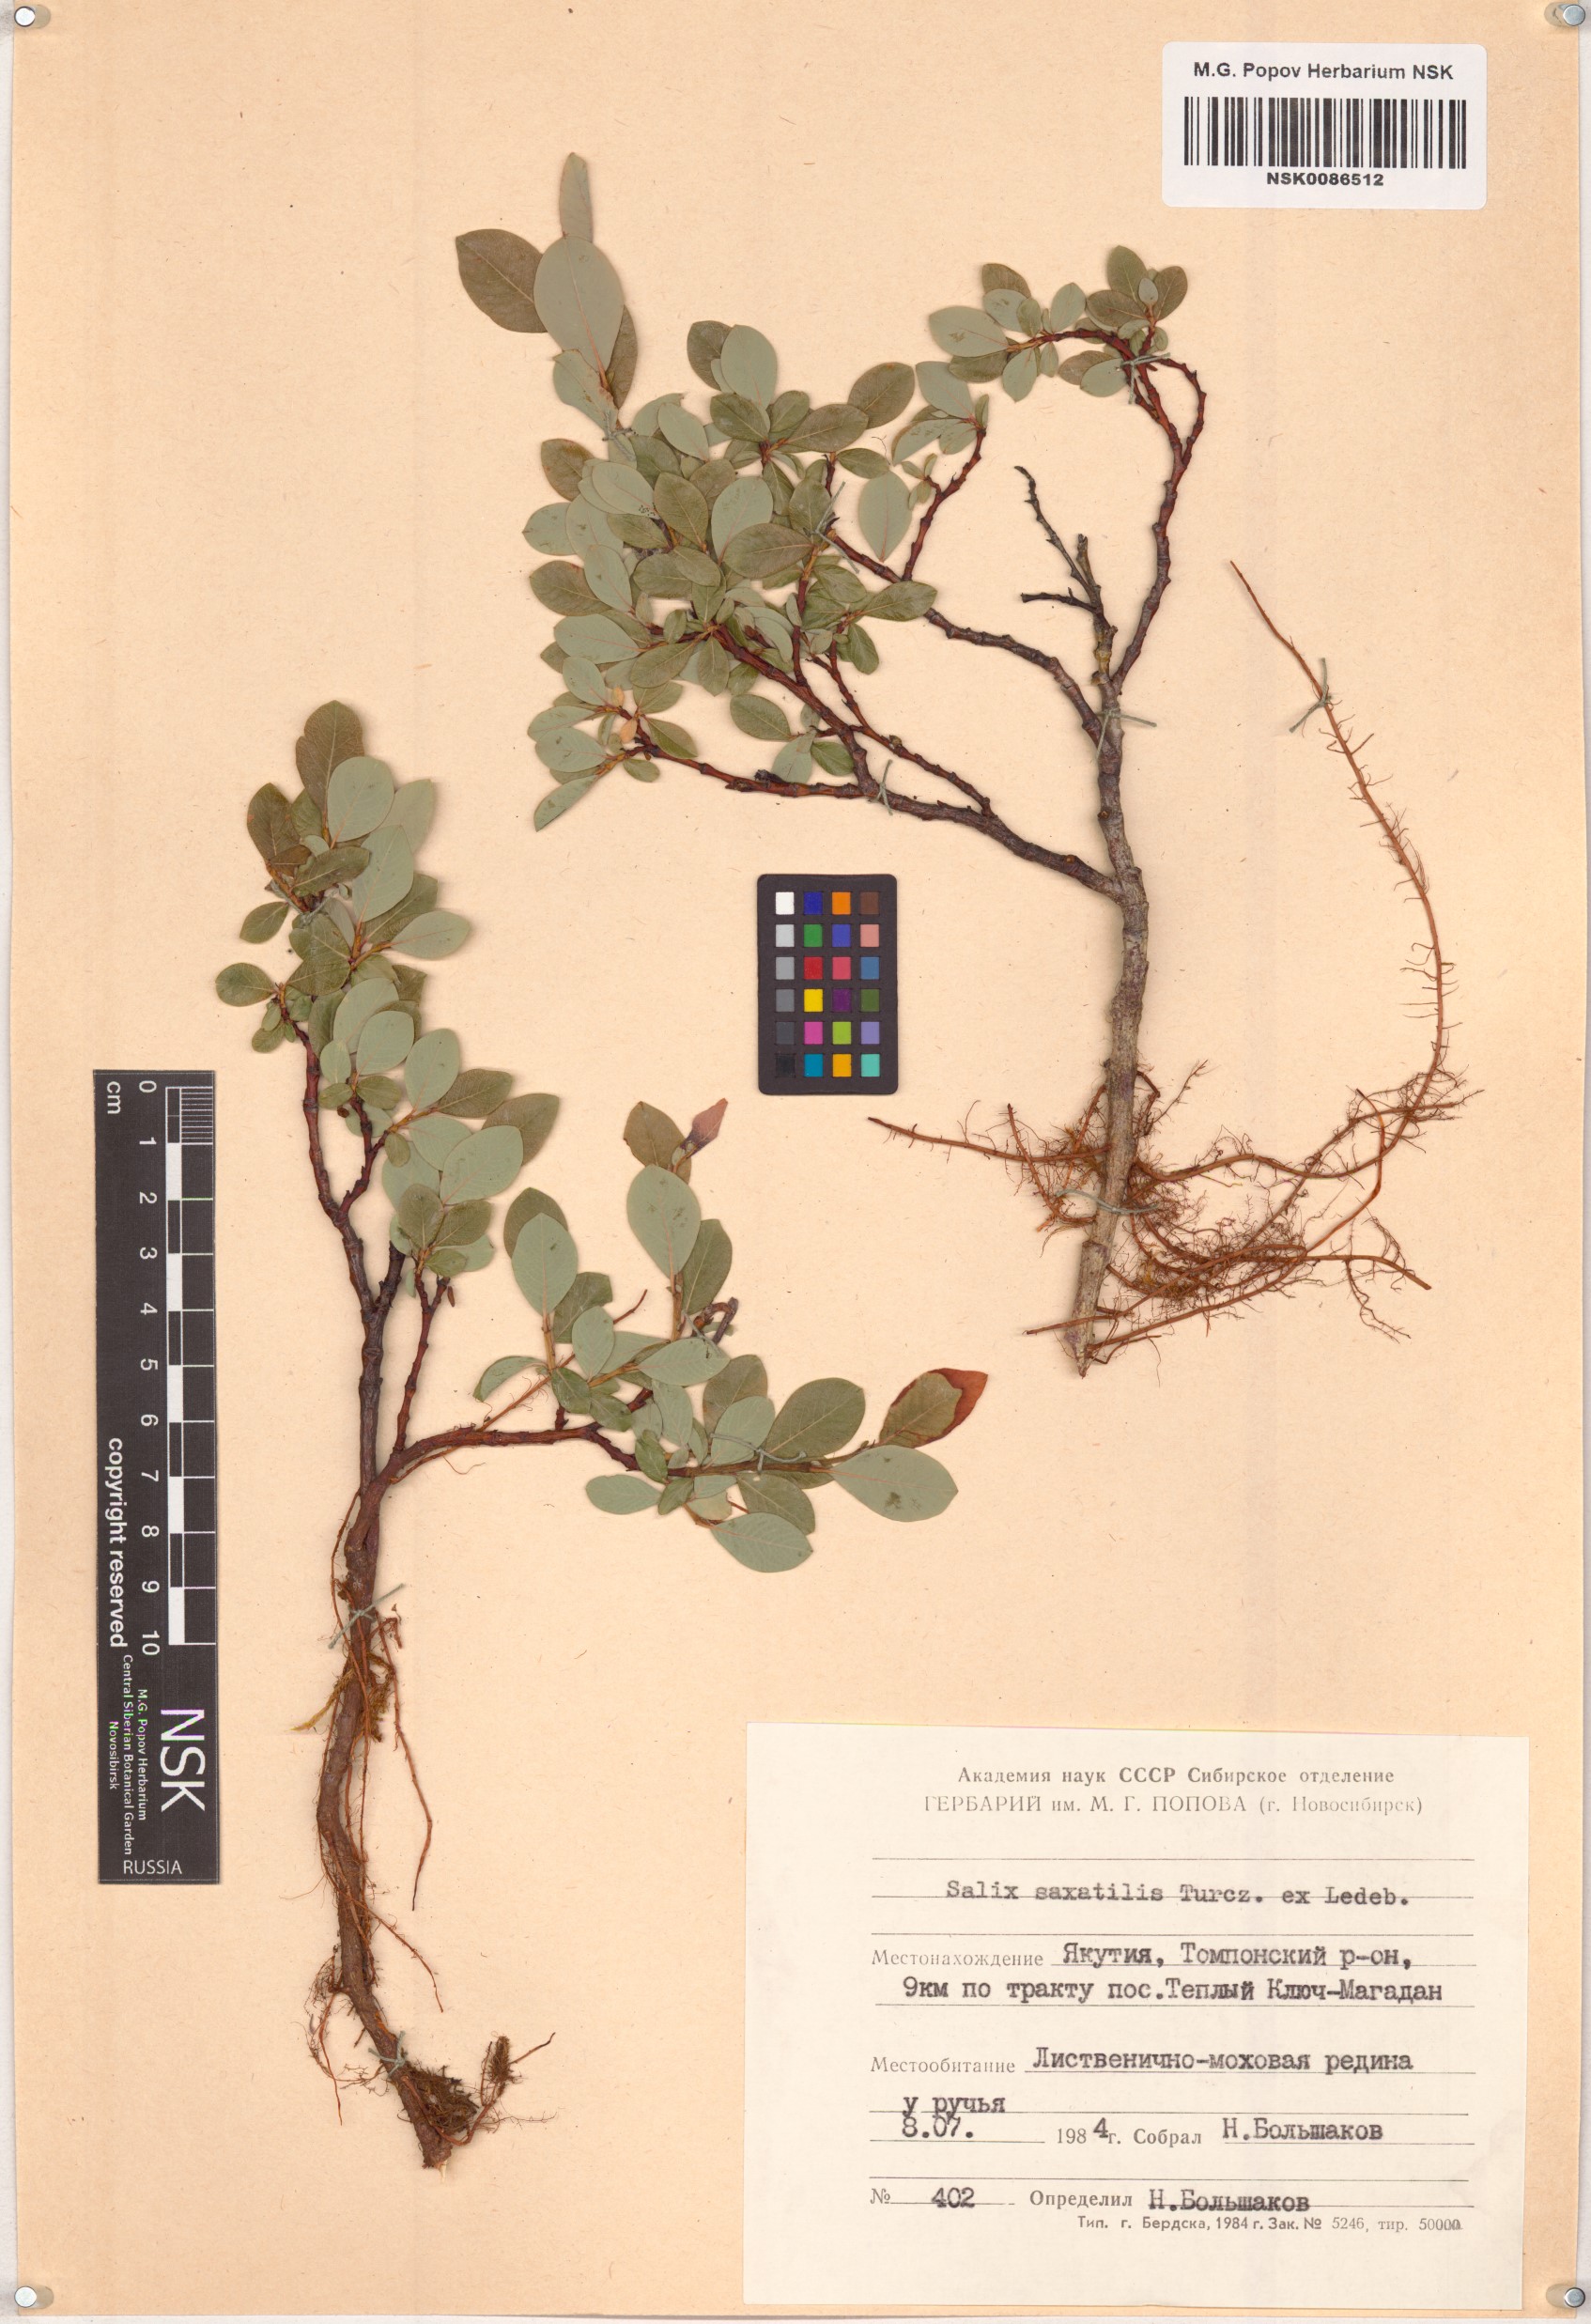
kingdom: Plantae
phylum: Tracheophyta
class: Magnoliopsida
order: Malpighiales
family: Salicaceae
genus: Salix
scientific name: Salix saxatilis
